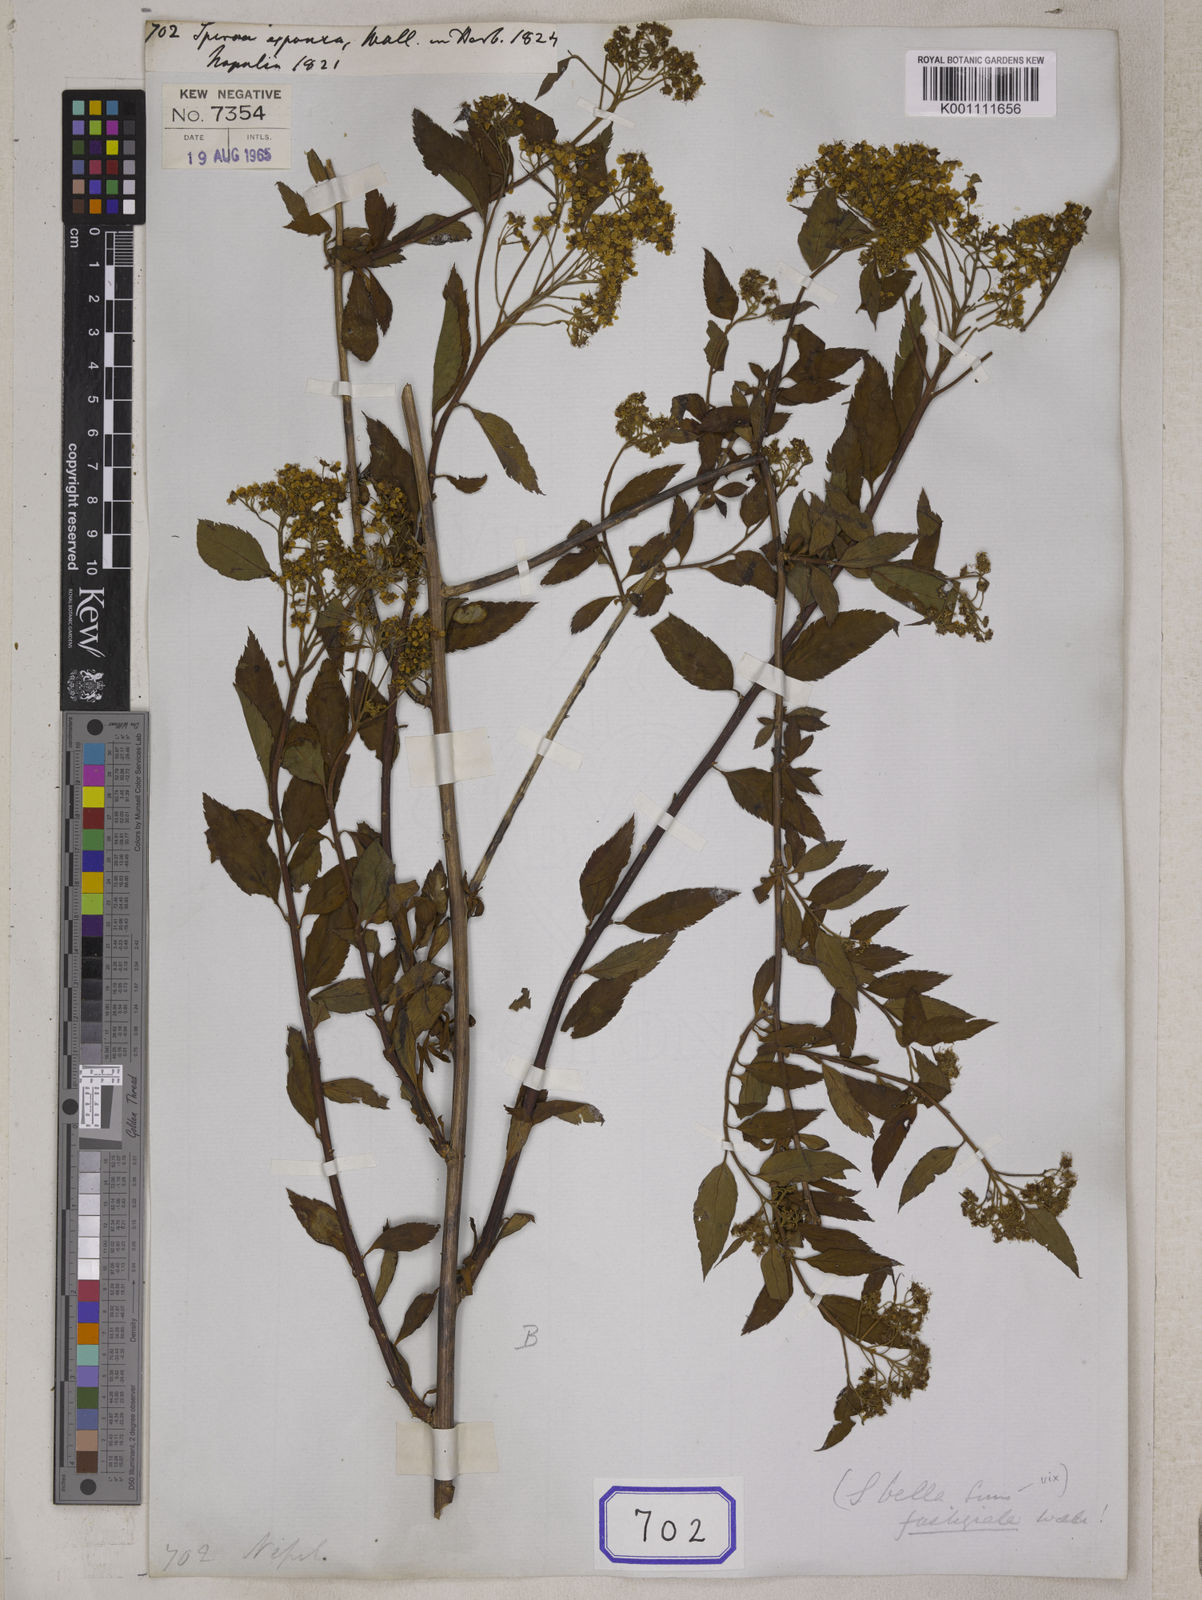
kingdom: Plantae
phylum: Tracheophyta
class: Magnoliopsida
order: Rosales
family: Rosaceae
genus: Spiraea
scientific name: Spiraea expansa
